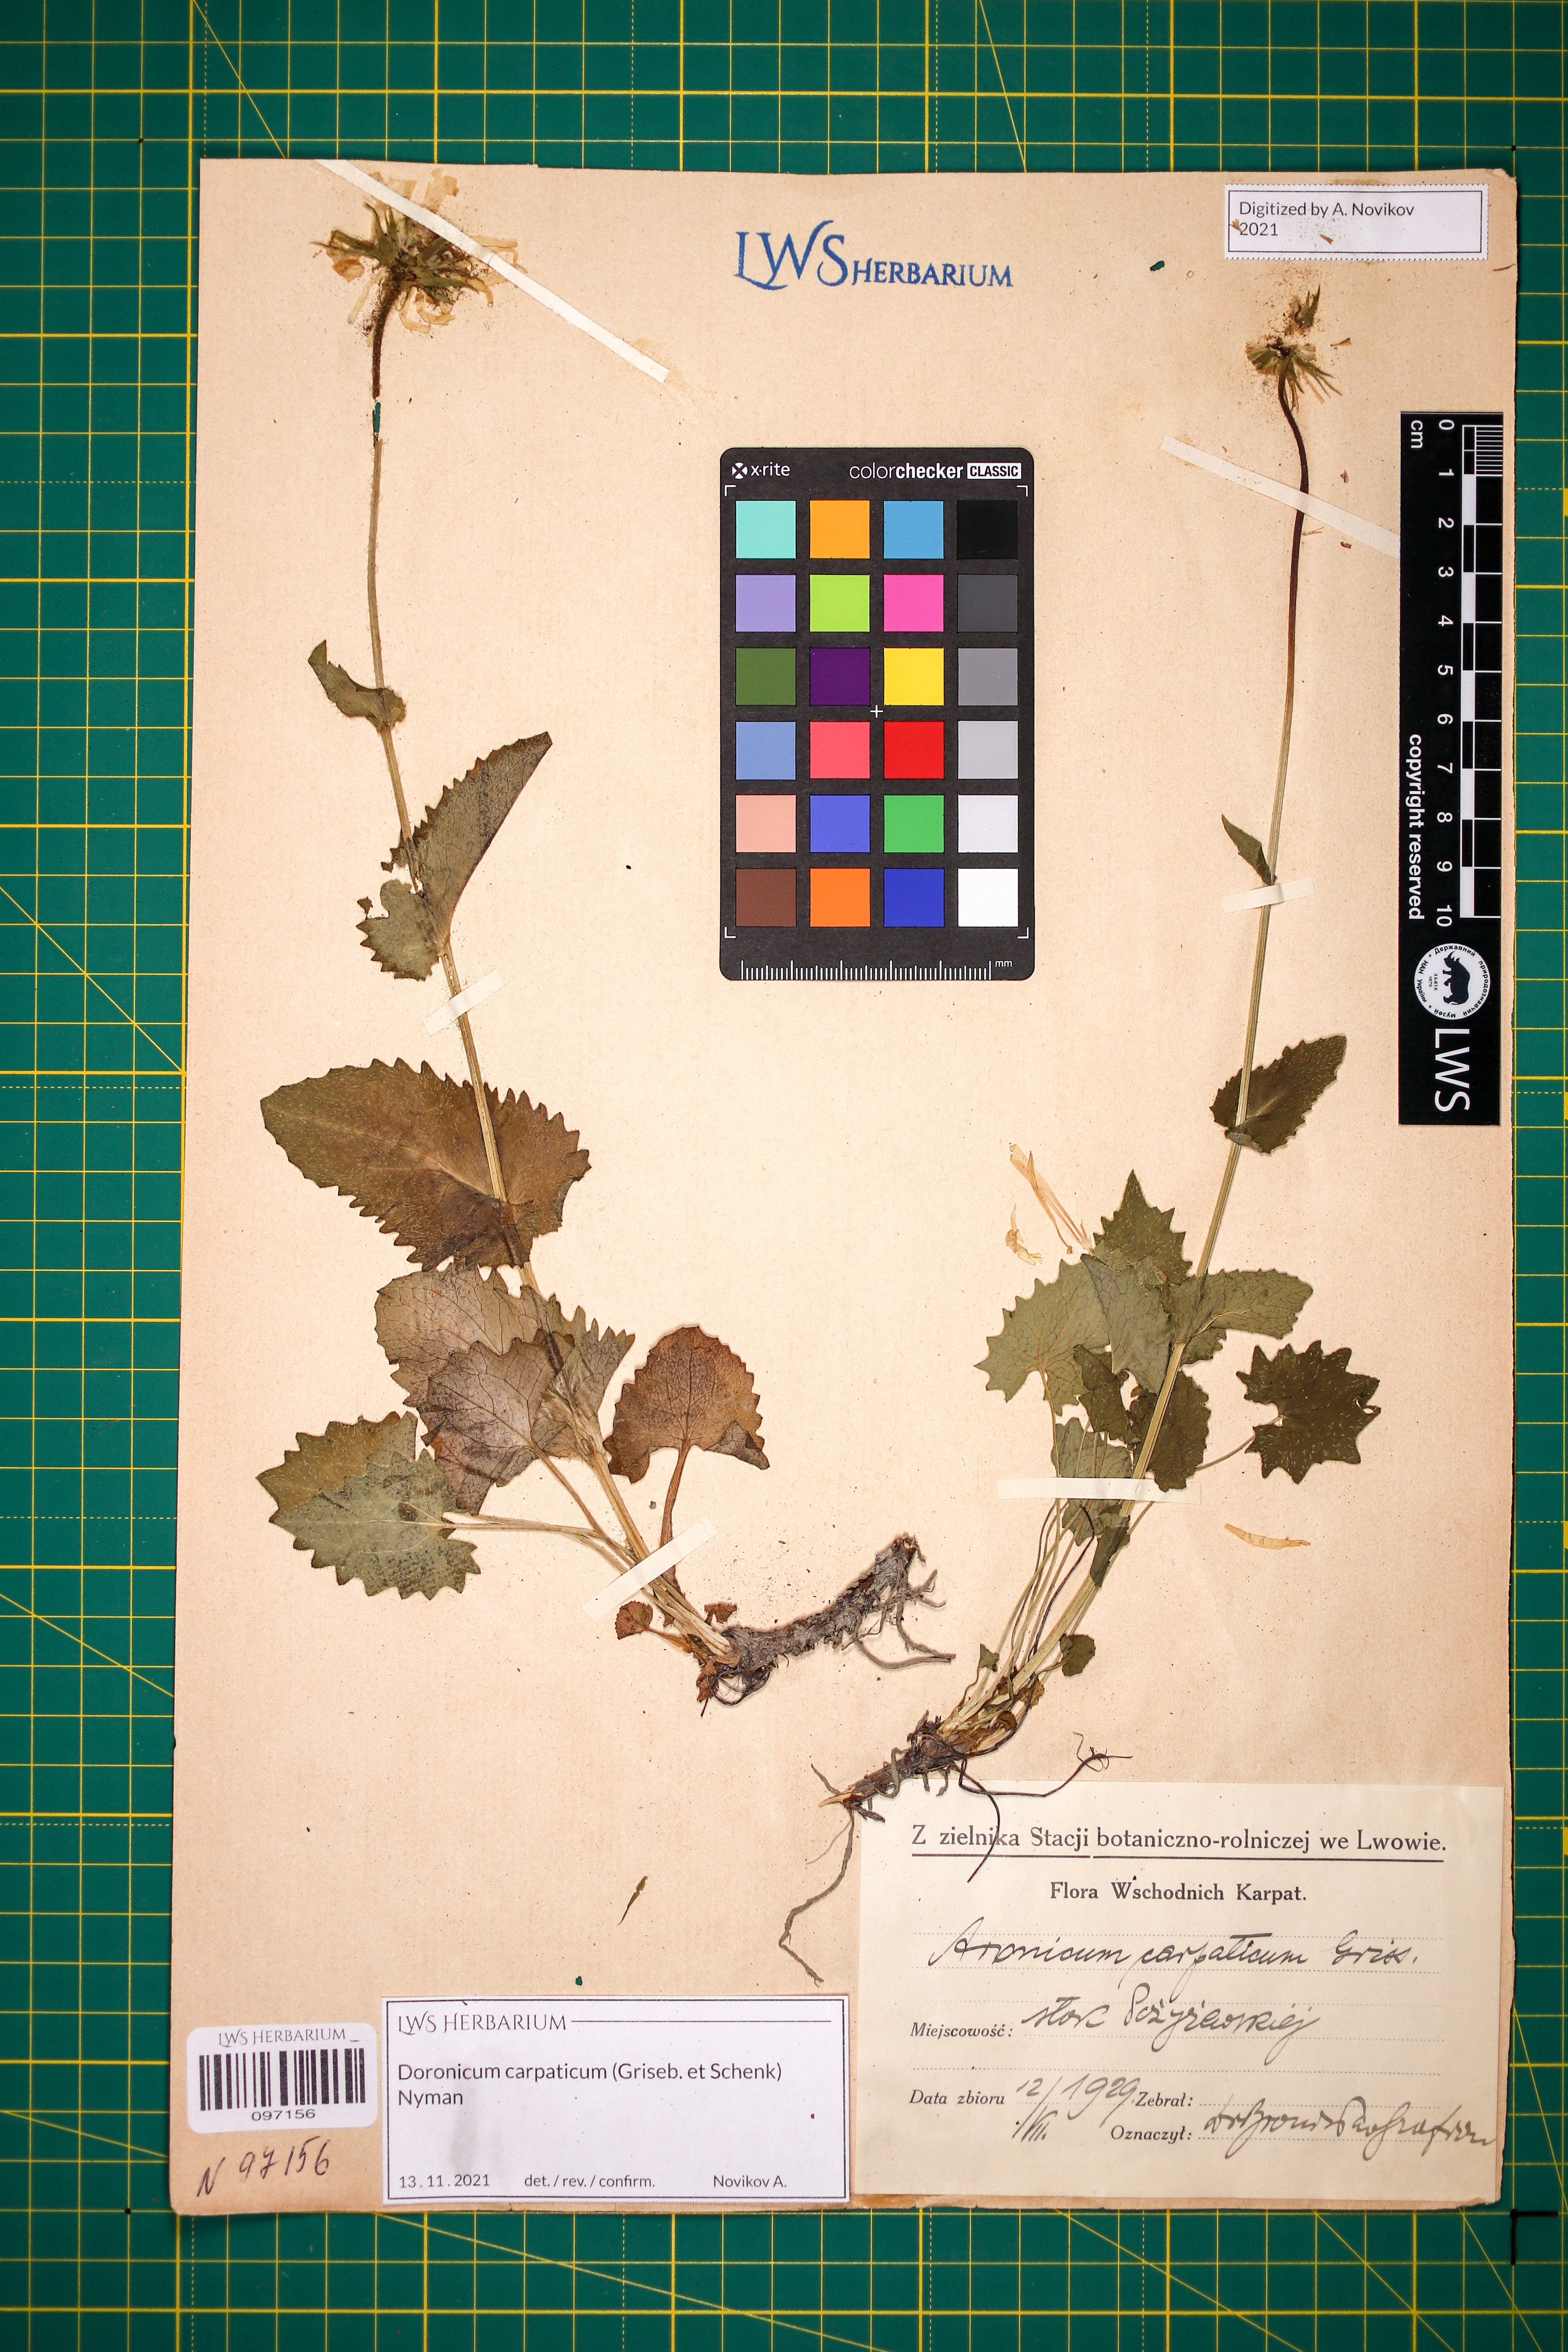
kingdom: Plantae
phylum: Tracheophyta
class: Magnoliopsida
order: Asterales
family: Asteraceae
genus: Doronicum
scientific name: Doronicum carpaticum
